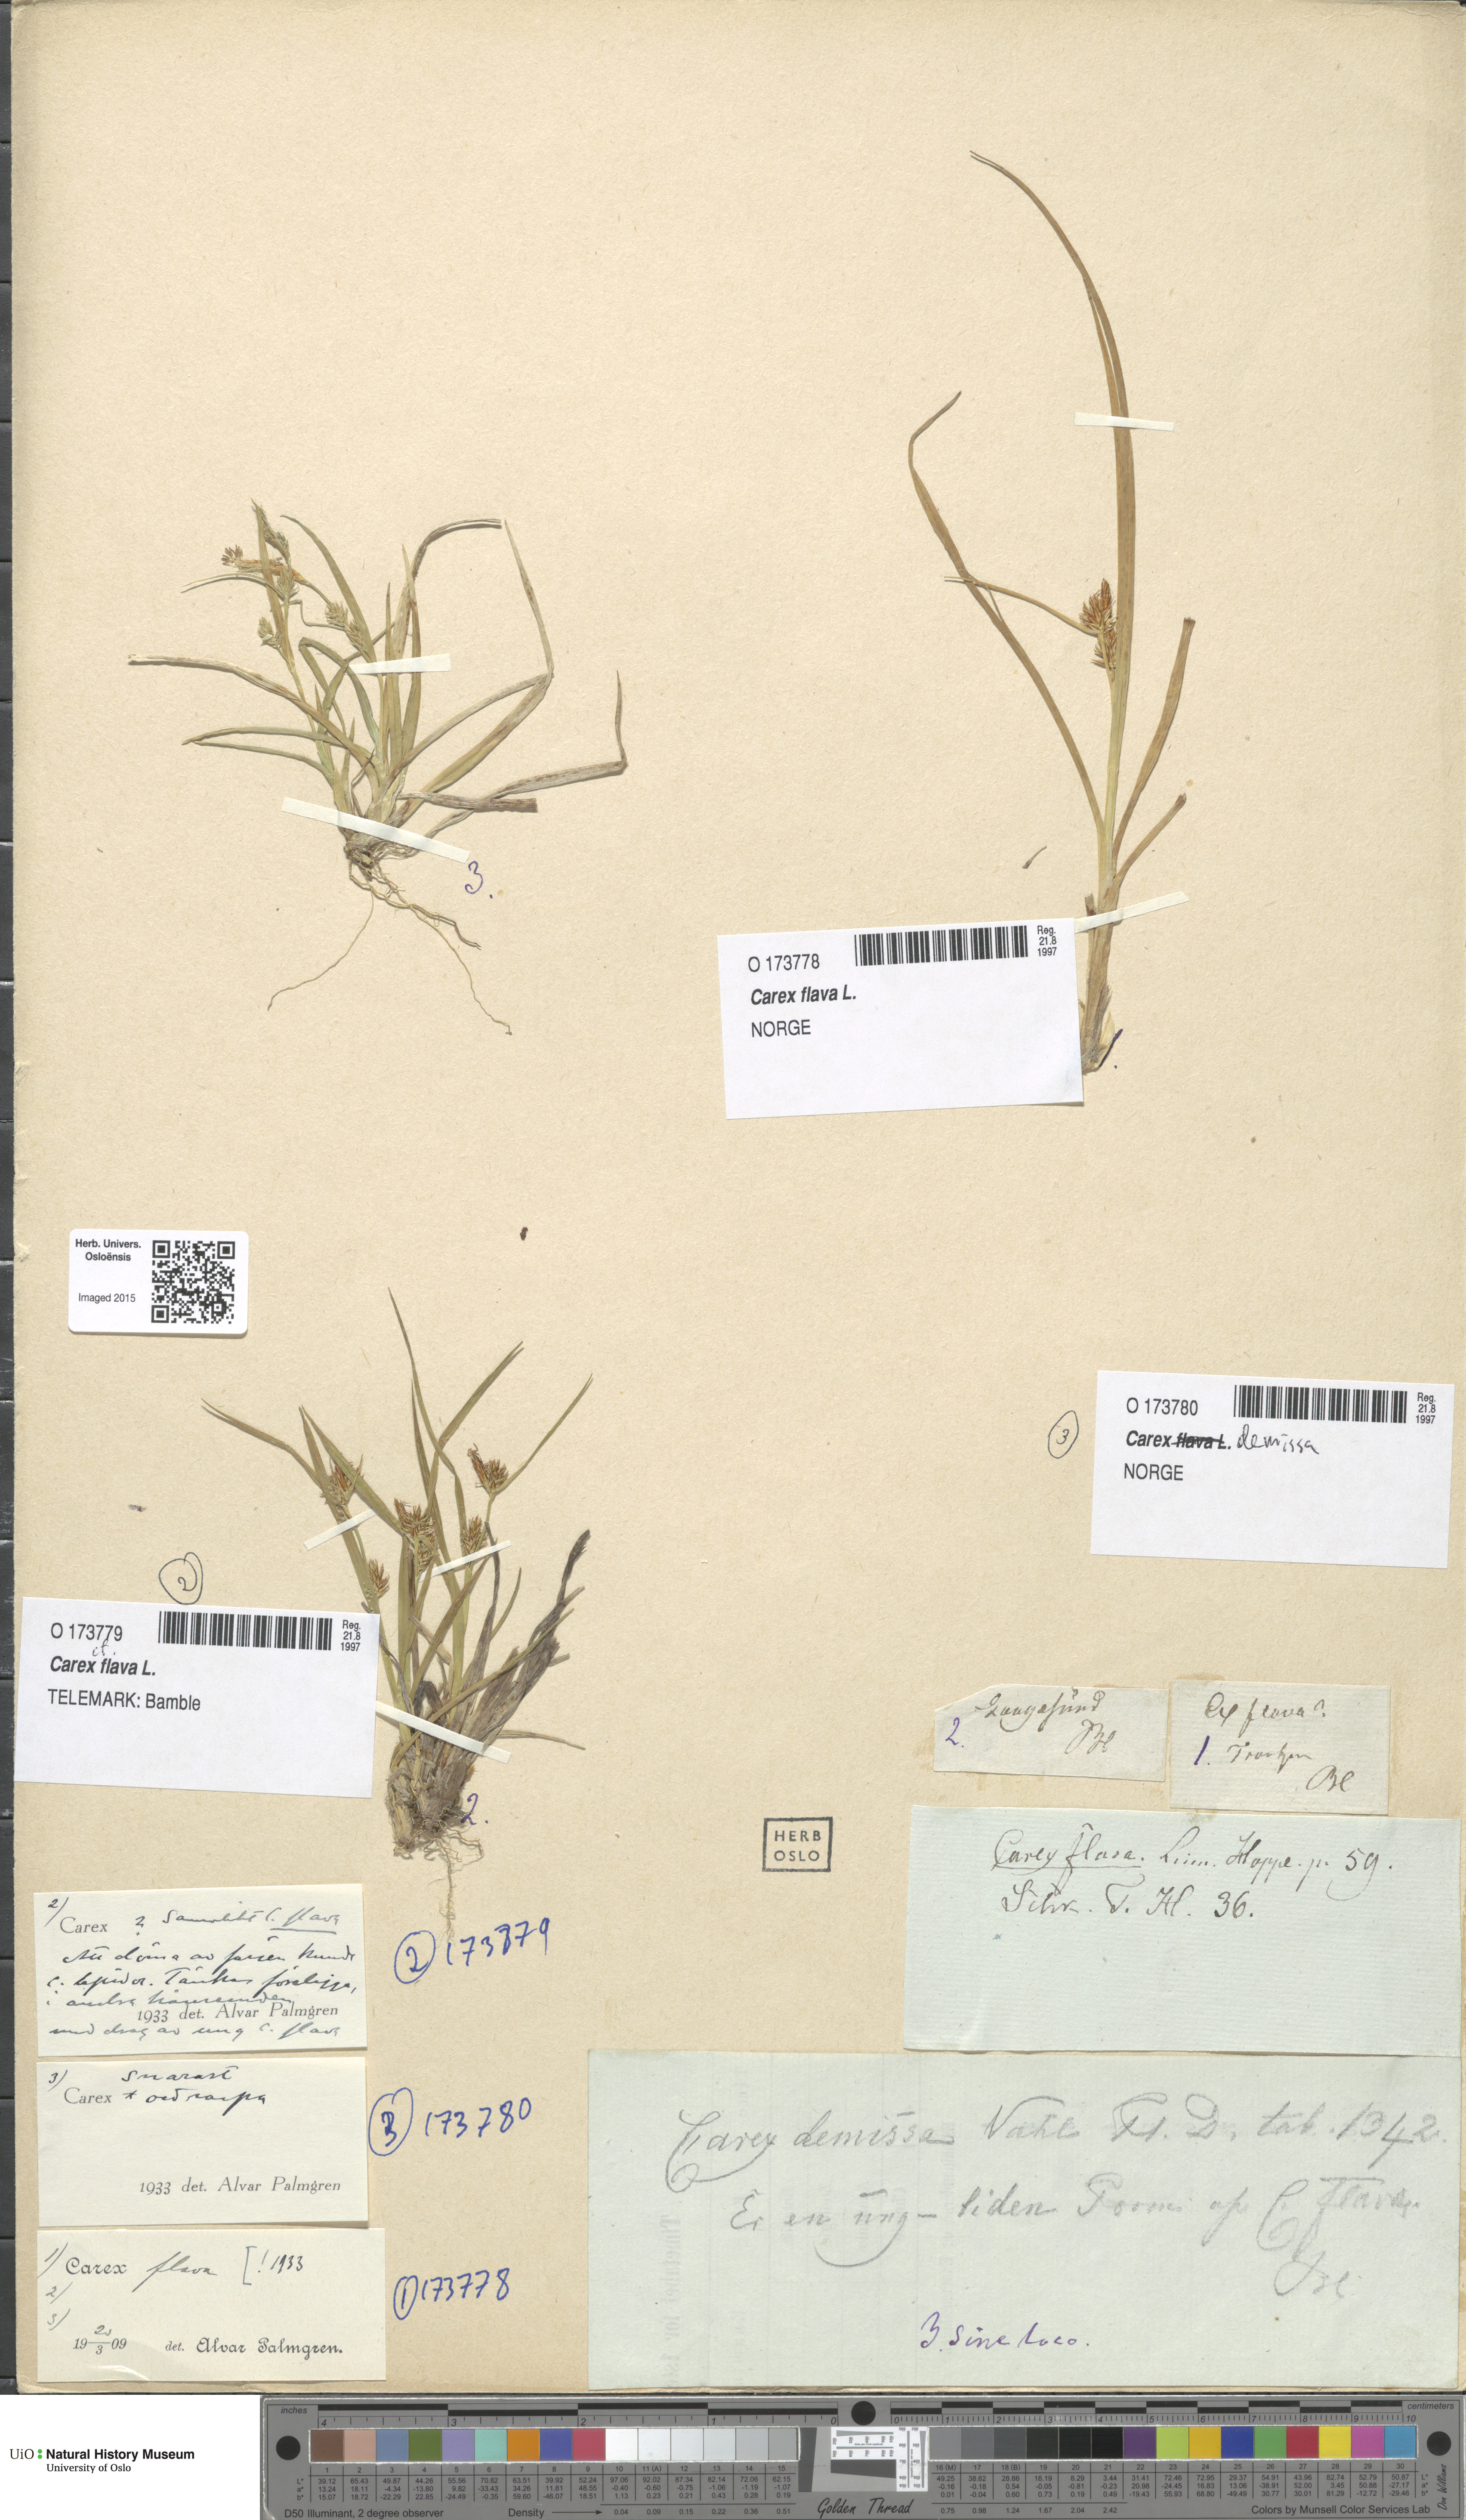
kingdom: Plantae
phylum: Tracheophyta
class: Liliopsida
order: Poales
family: Cyperaceae
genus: Carex
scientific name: Carex flava
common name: Large yellow-sedge
